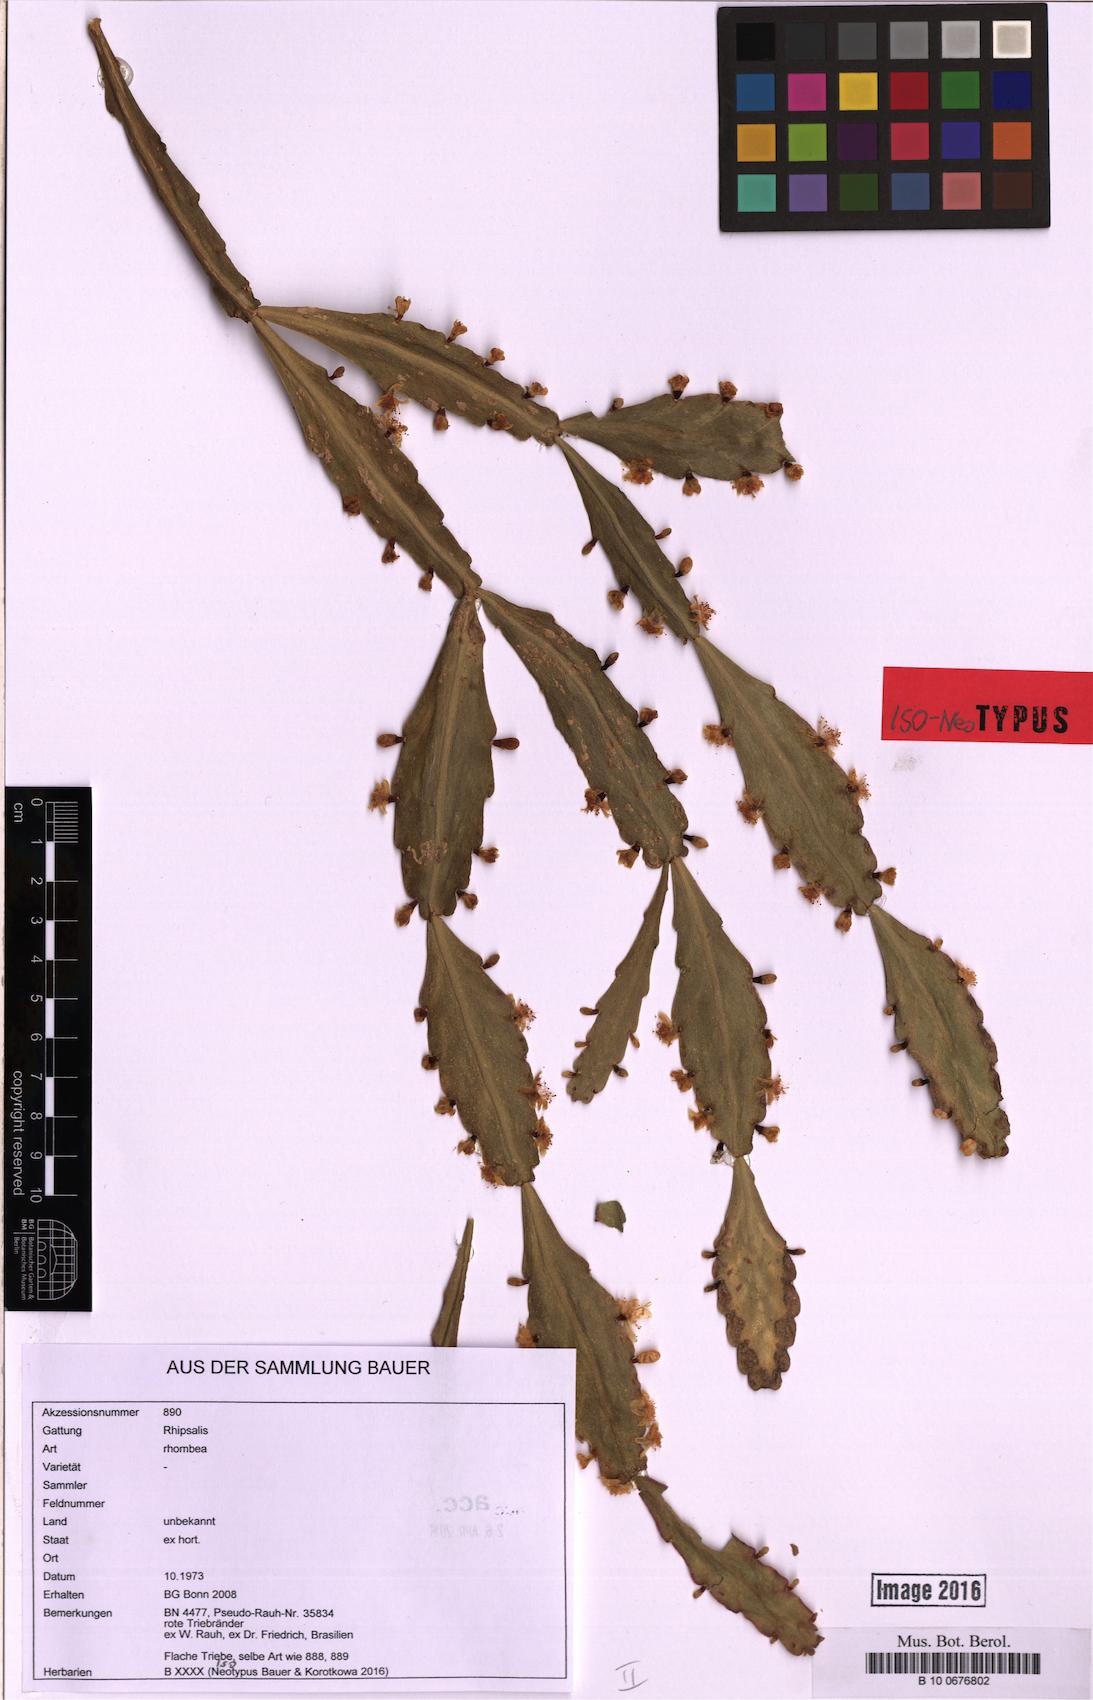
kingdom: Plantae
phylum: Tracheophyta
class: Magnoliopsida
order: Caryophyllales
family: Cactaceae
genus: Rhipsalis
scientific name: Rhipsalis rhombea
